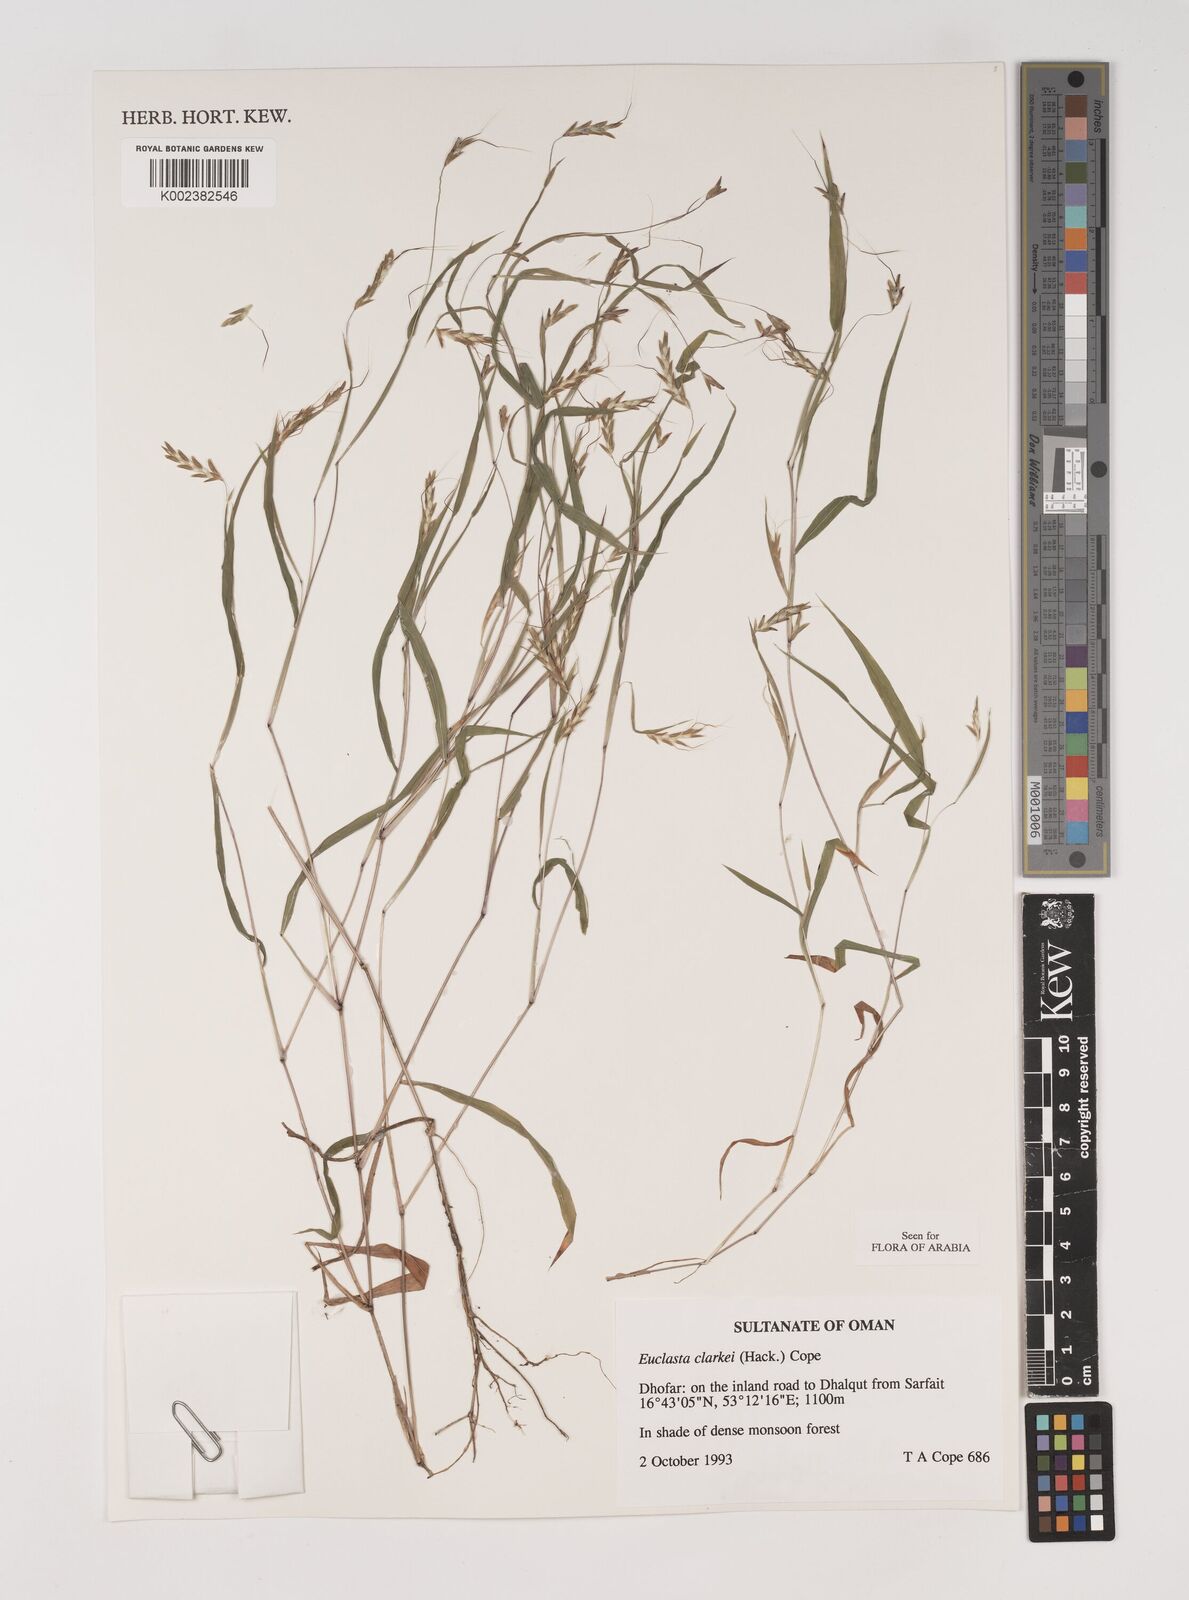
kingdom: Plantae
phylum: Tracheophyta
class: Liliopsida
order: Poales
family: Poaceae
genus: Euclasta
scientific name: Euclasta clarkei
